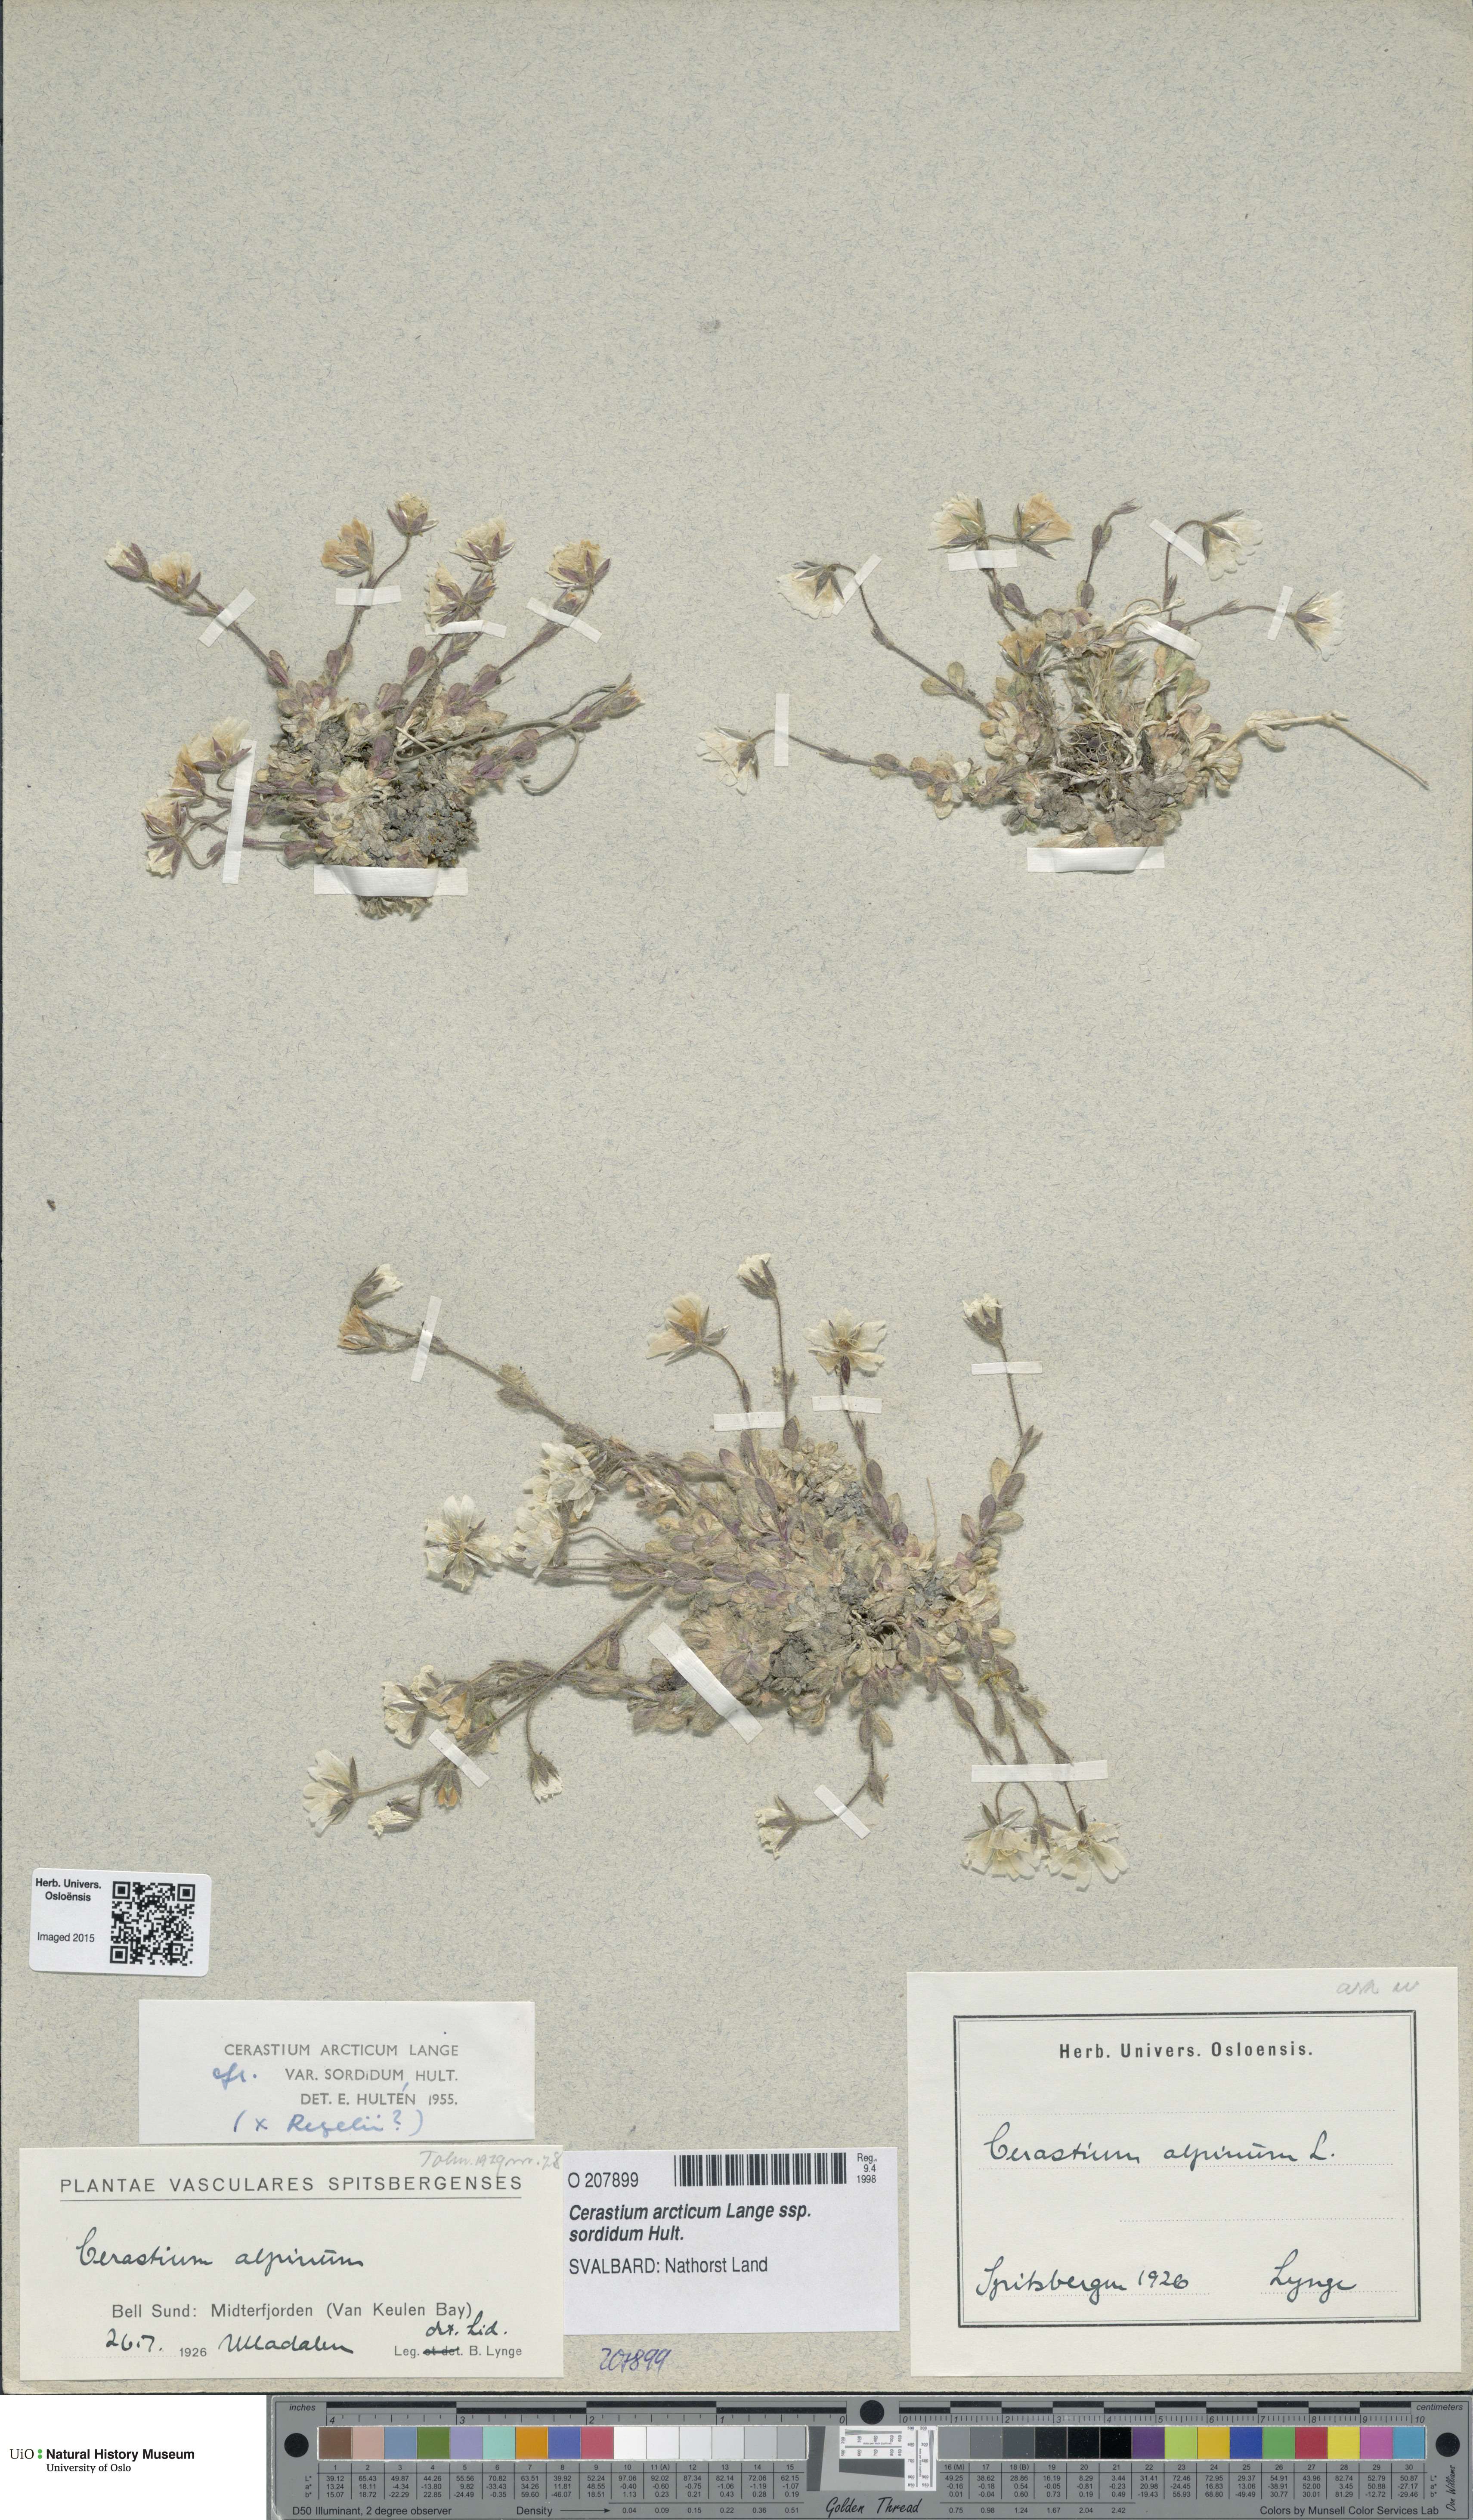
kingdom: Plantae
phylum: Tracheophyta
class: Magnoliopsida
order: Caryophyllales
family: Caryophyllaceae
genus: Cerastium
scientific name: Cerastium sordidum
